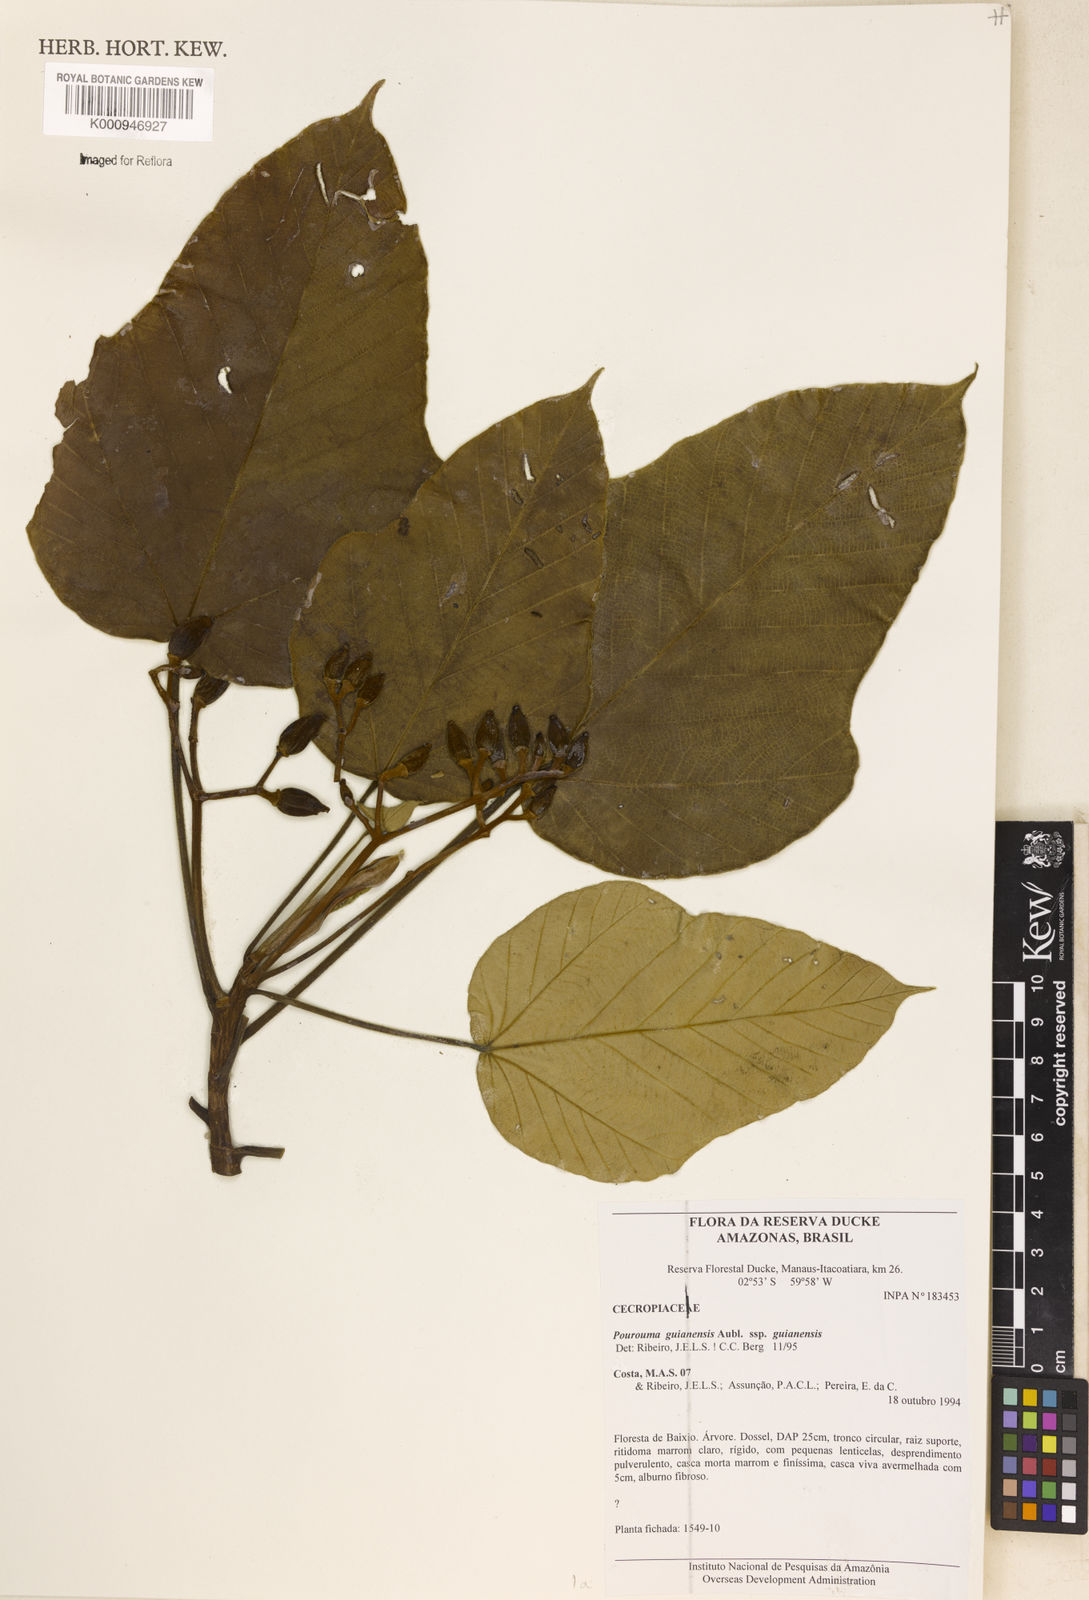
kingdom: Plantae
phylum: Tracheophyta
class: Magnoliopsida
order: Rosales
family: Urticaceae
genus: Pourouma
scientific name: Pourouma guianensis
